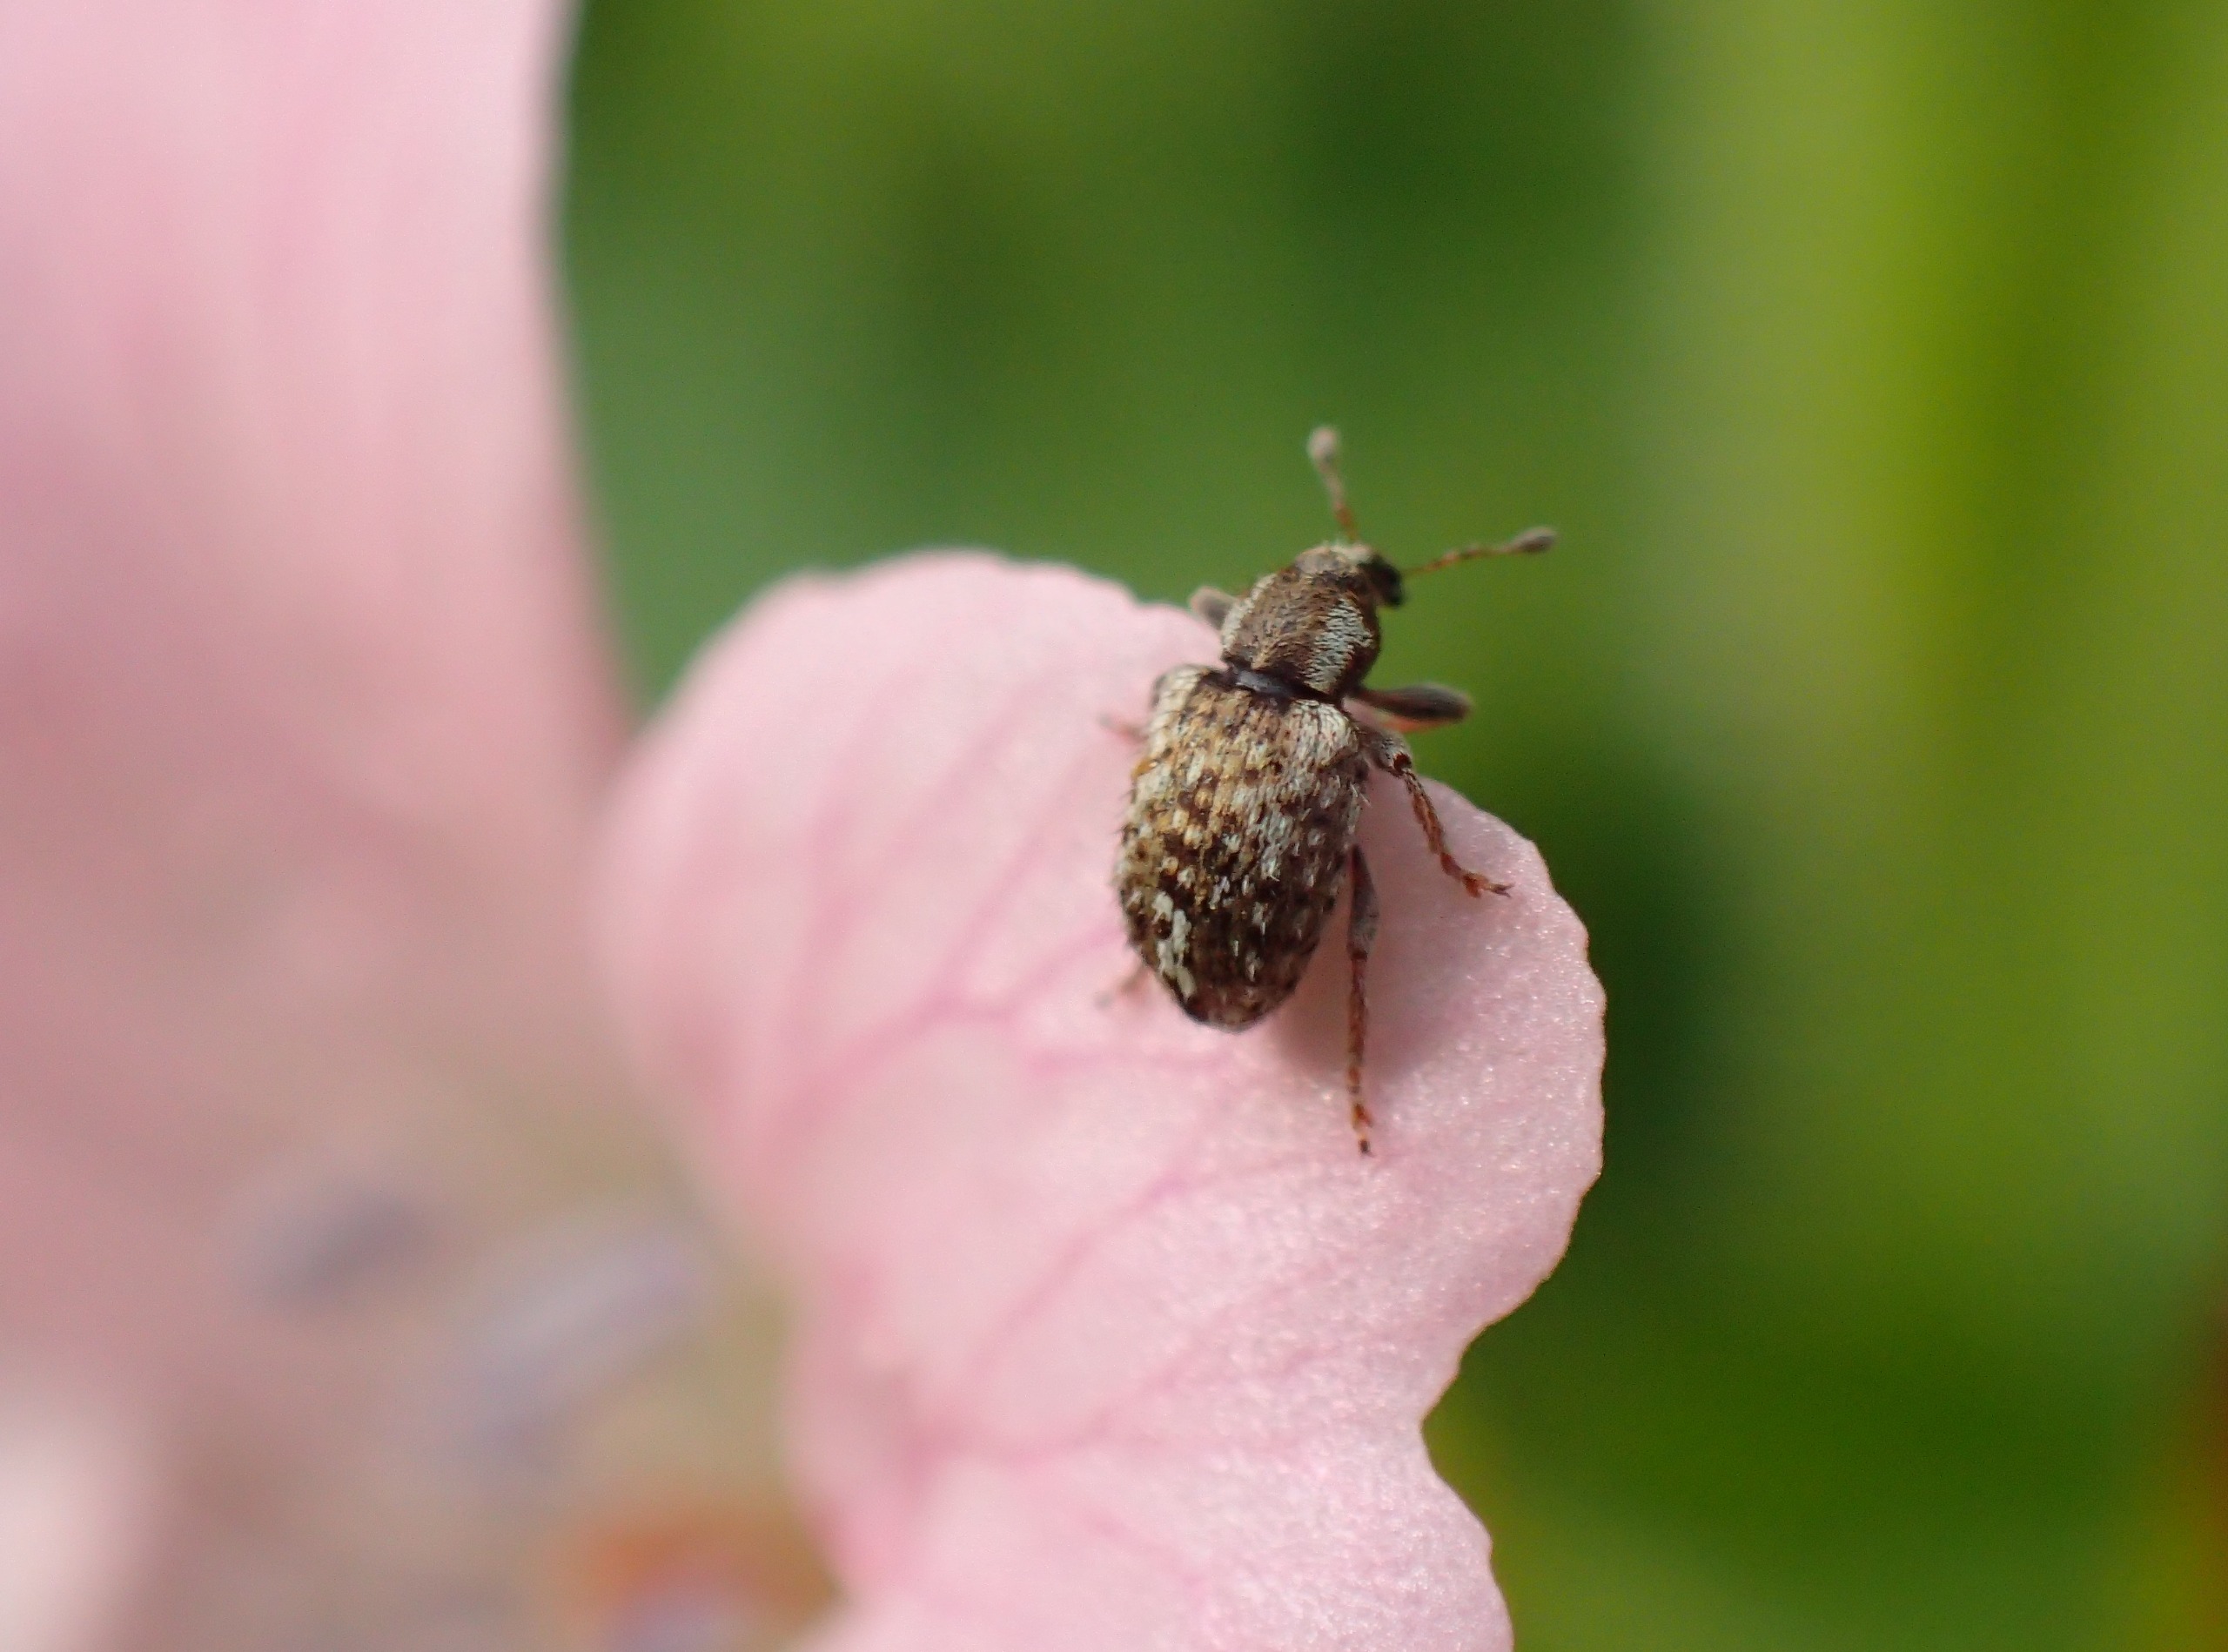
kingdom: Animalia
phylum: Arthropoda
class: Insecta
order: Coleoptera
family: Curculionidae
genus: Limobius
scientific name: Limobius borealis
